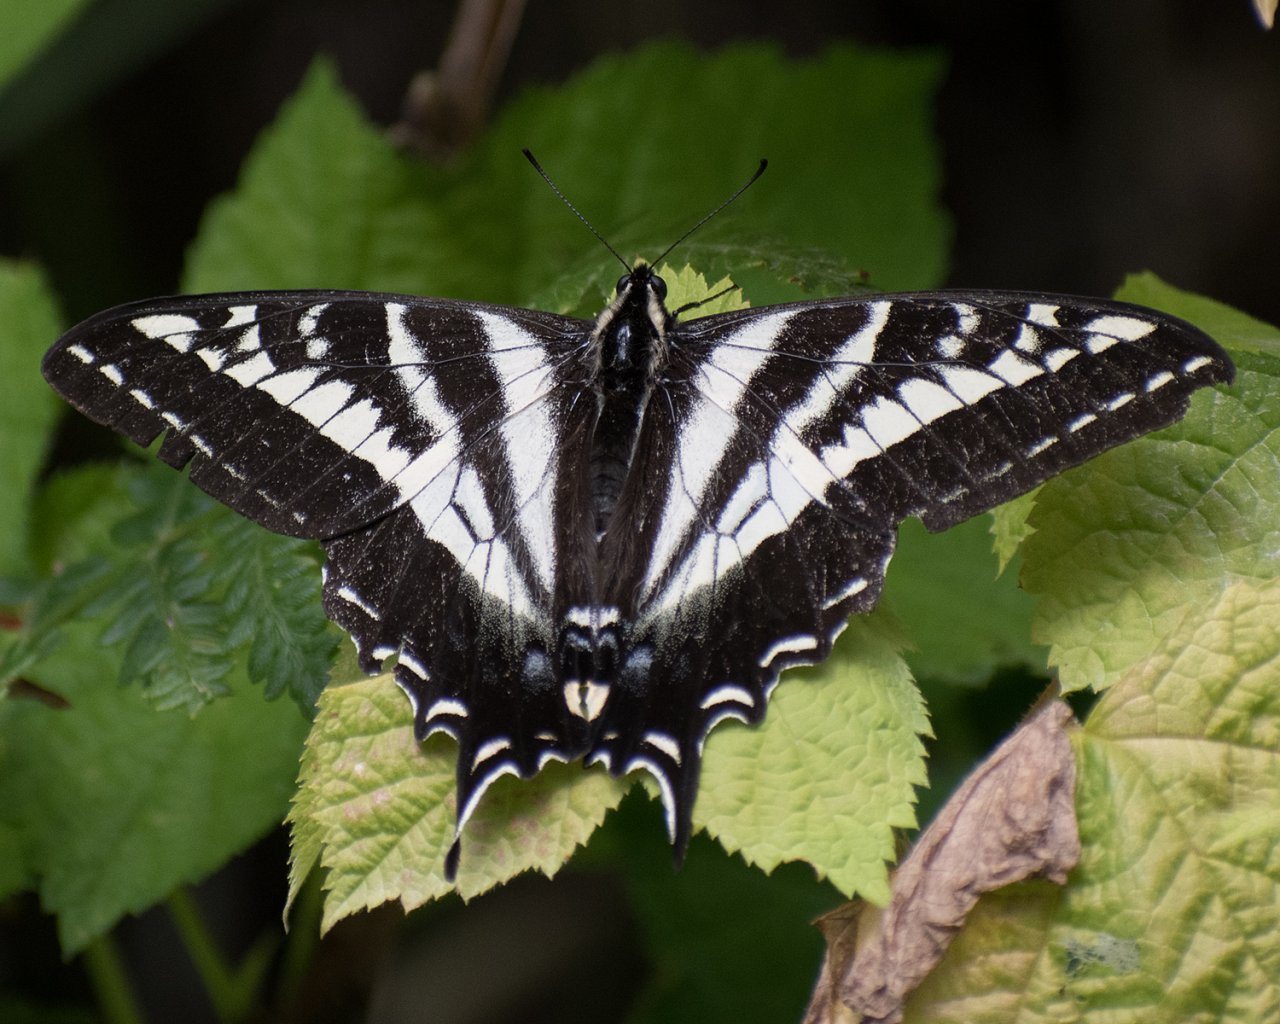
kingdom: Animalia
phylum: Arthropoda
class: Insecta
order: Lepidoptera
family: Papilionidae
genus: Pterourus
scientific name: Pterourus eurymedon
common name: Pale Swallowtail
